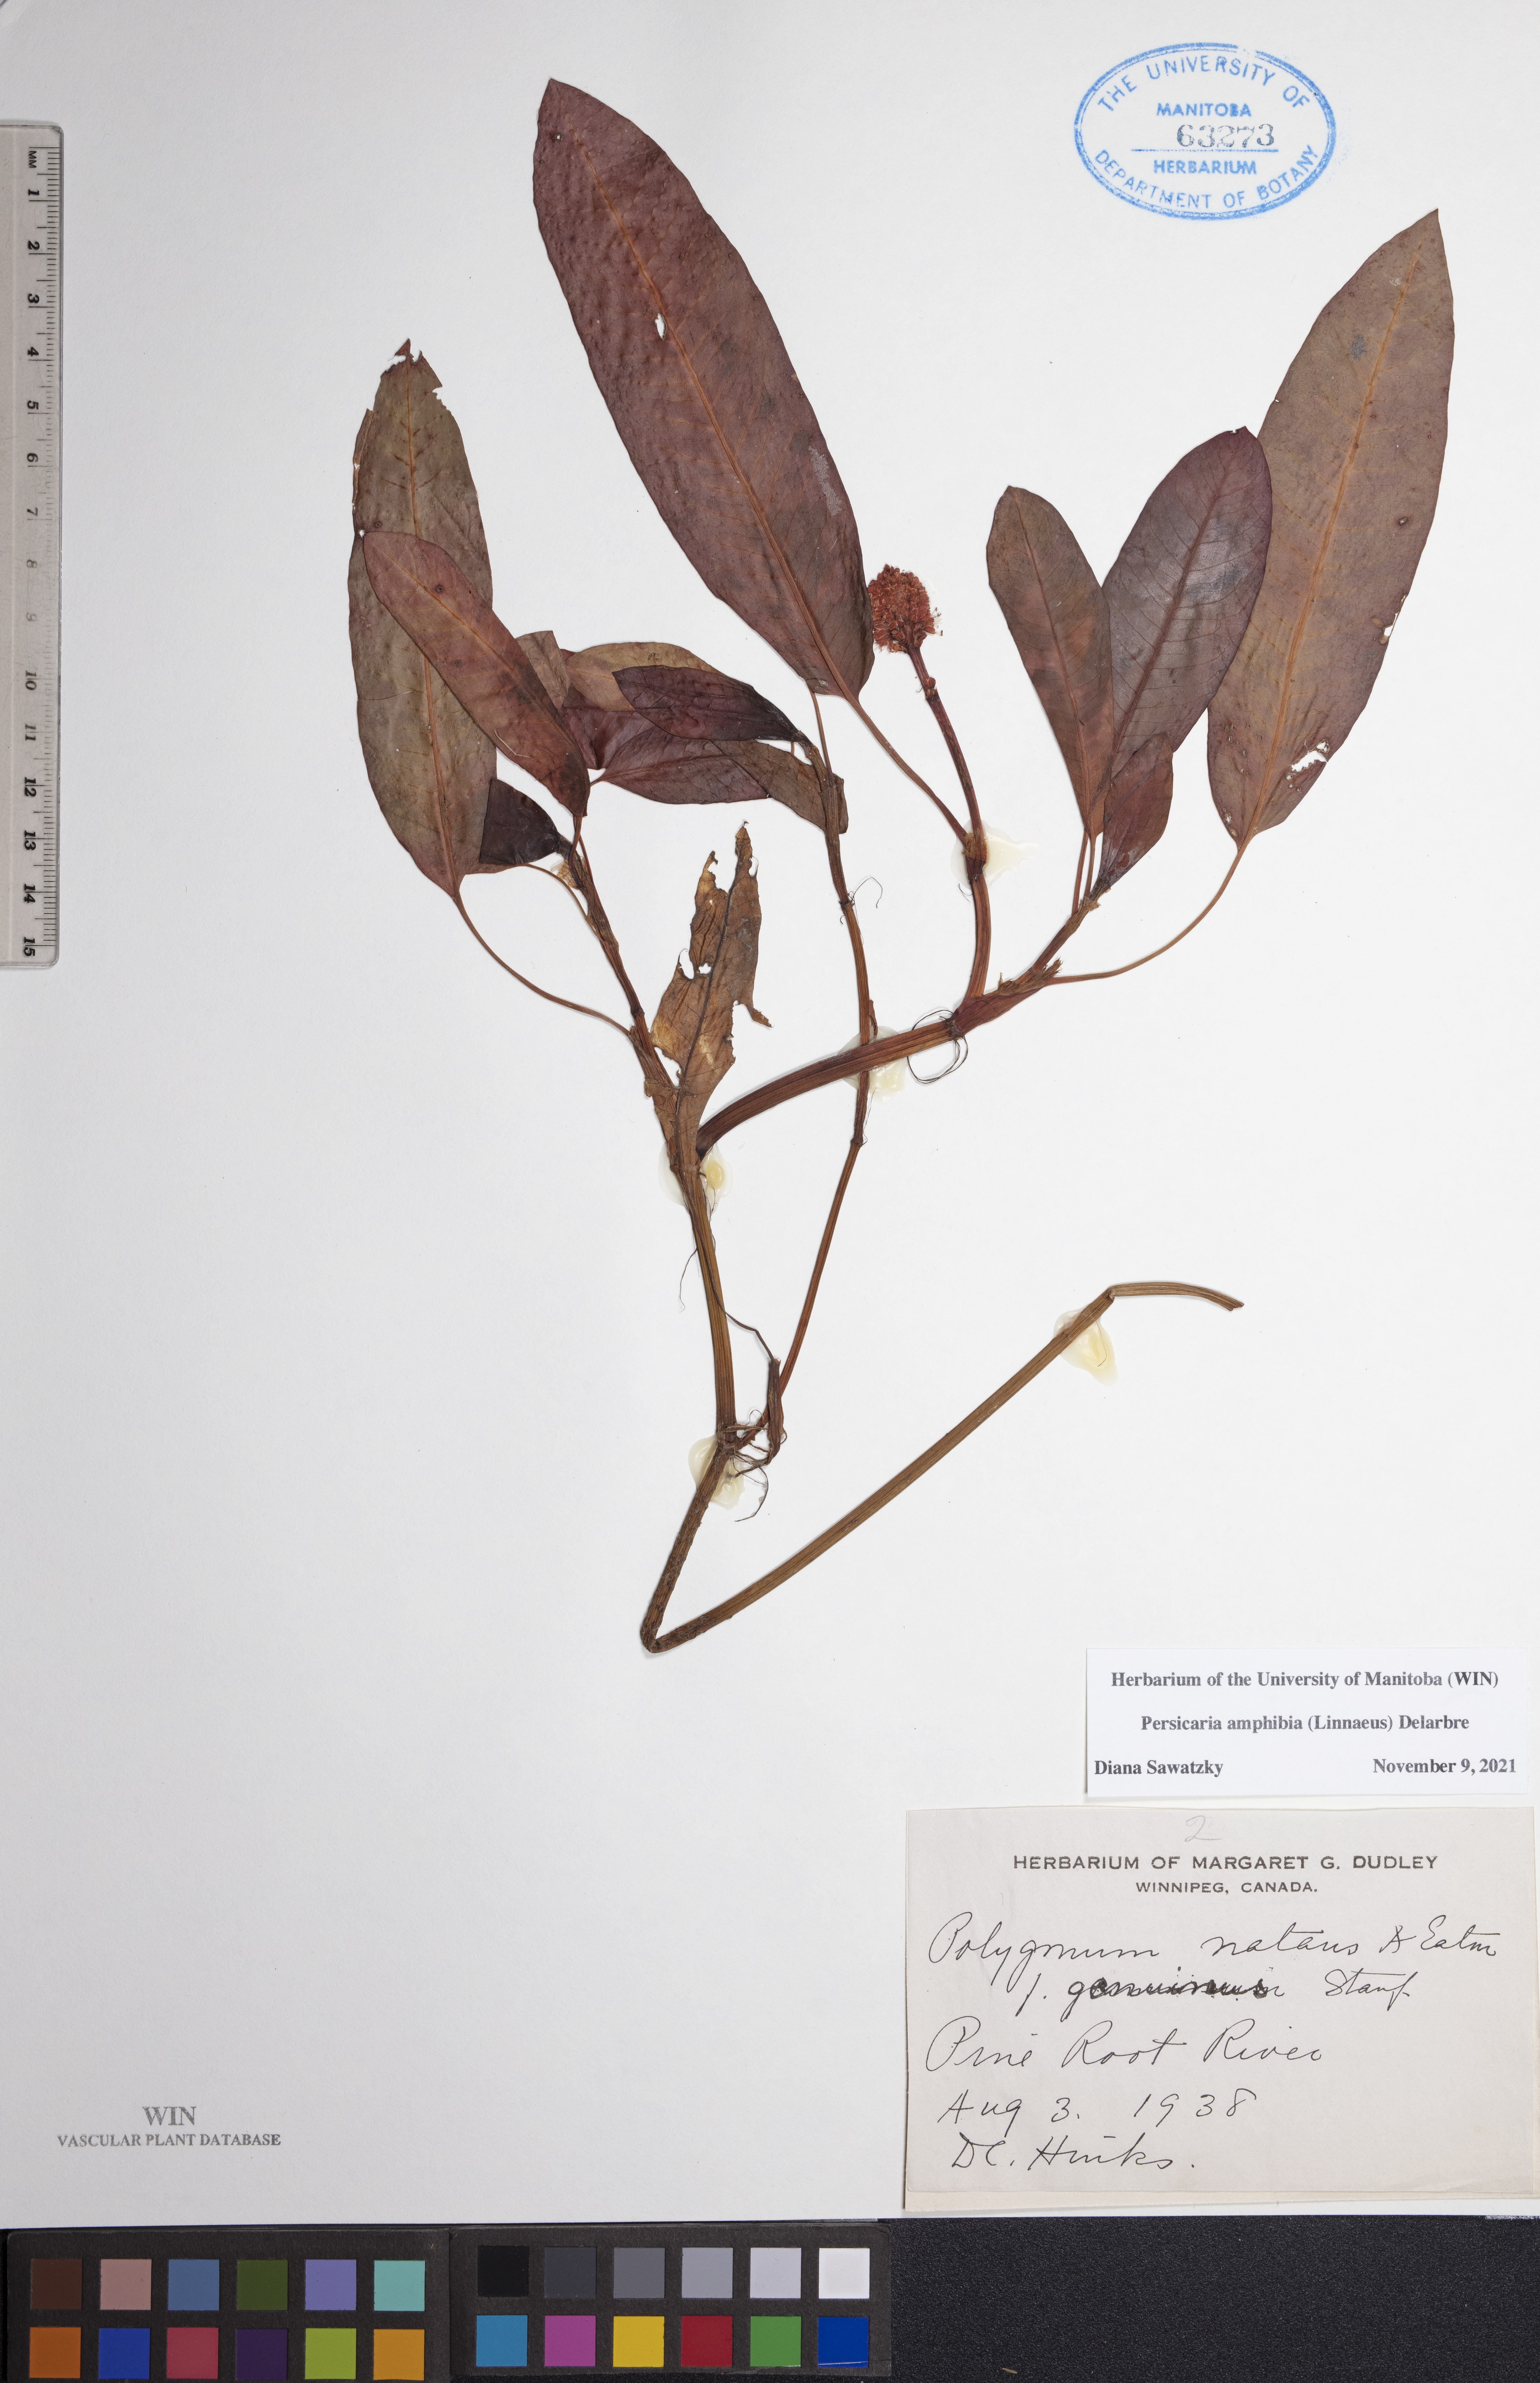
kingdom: Plantae
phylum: Tracheophyta
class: Magnoliopsida
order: Caryophyllales
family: Polygonaceae
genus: Persicaria
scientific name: Persicaria amphibia
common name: Amphibious bistort
